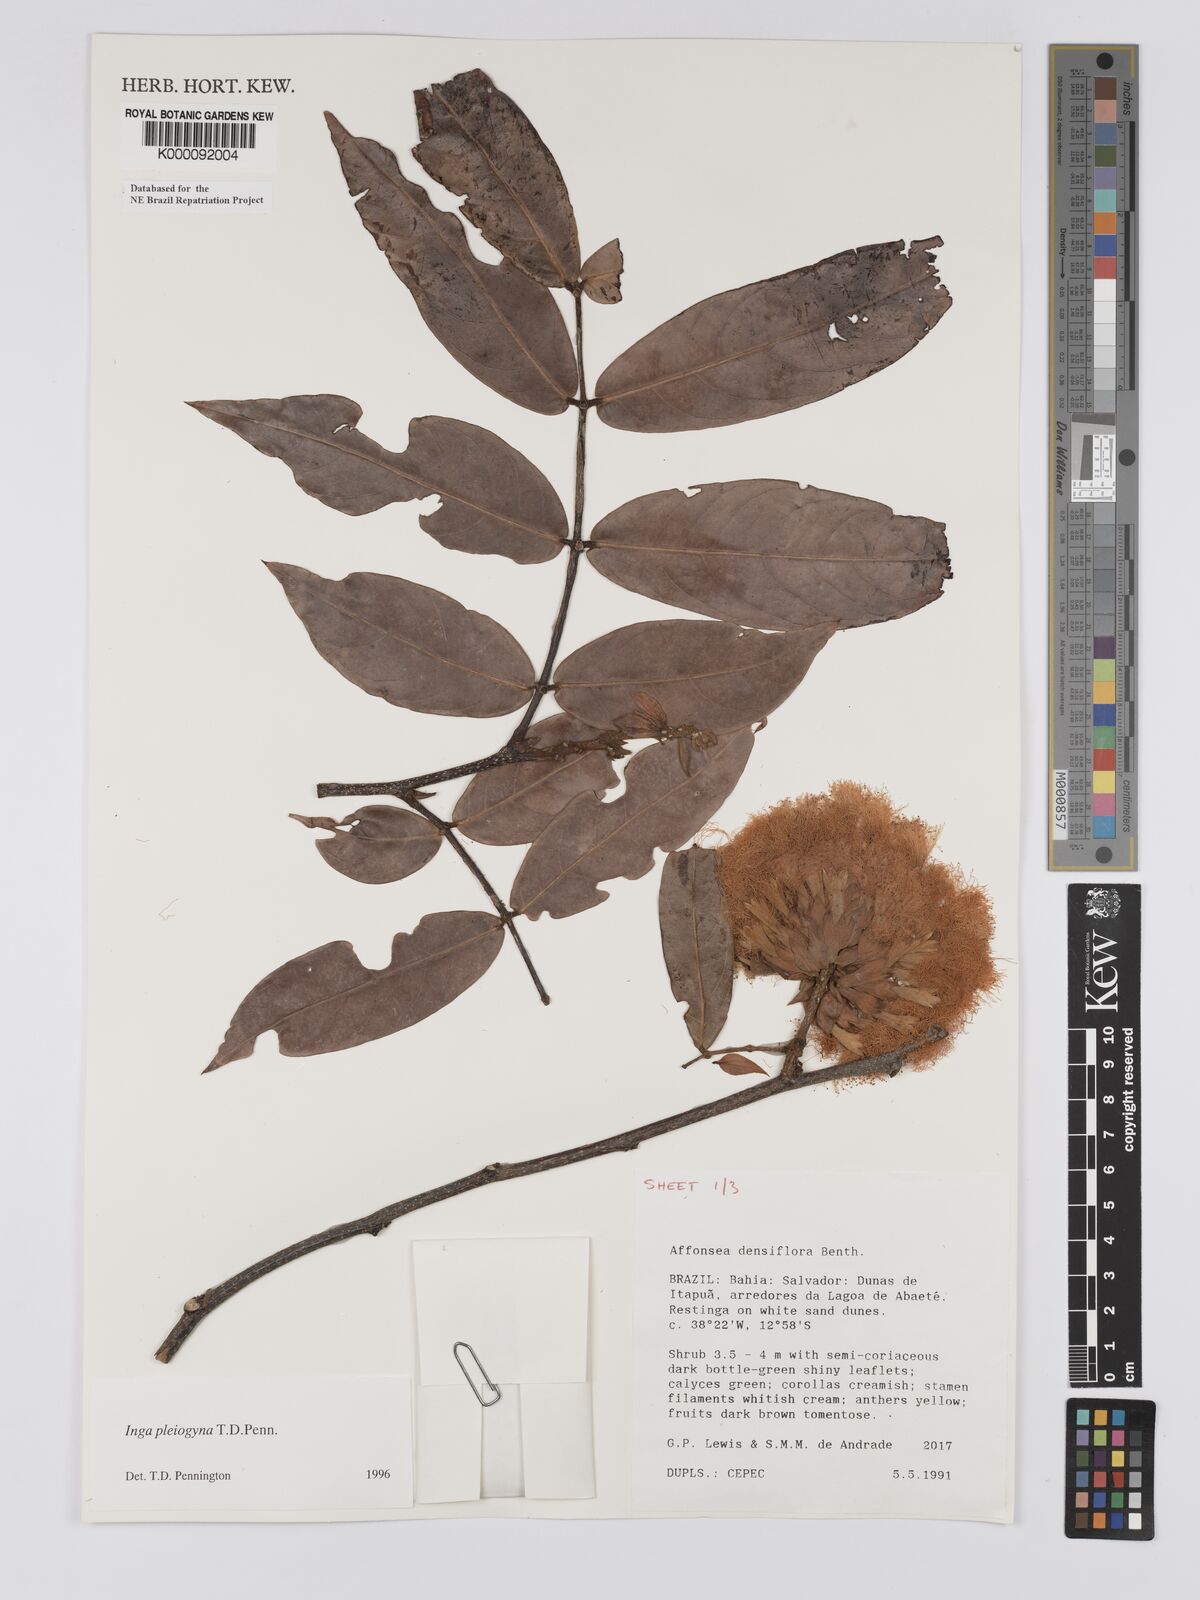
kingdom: Plantae
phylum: Tracheophyta
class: Magnoliopsida
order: Fabales
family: Fabaceae
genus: Inga
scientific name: Inga pleiogyna
